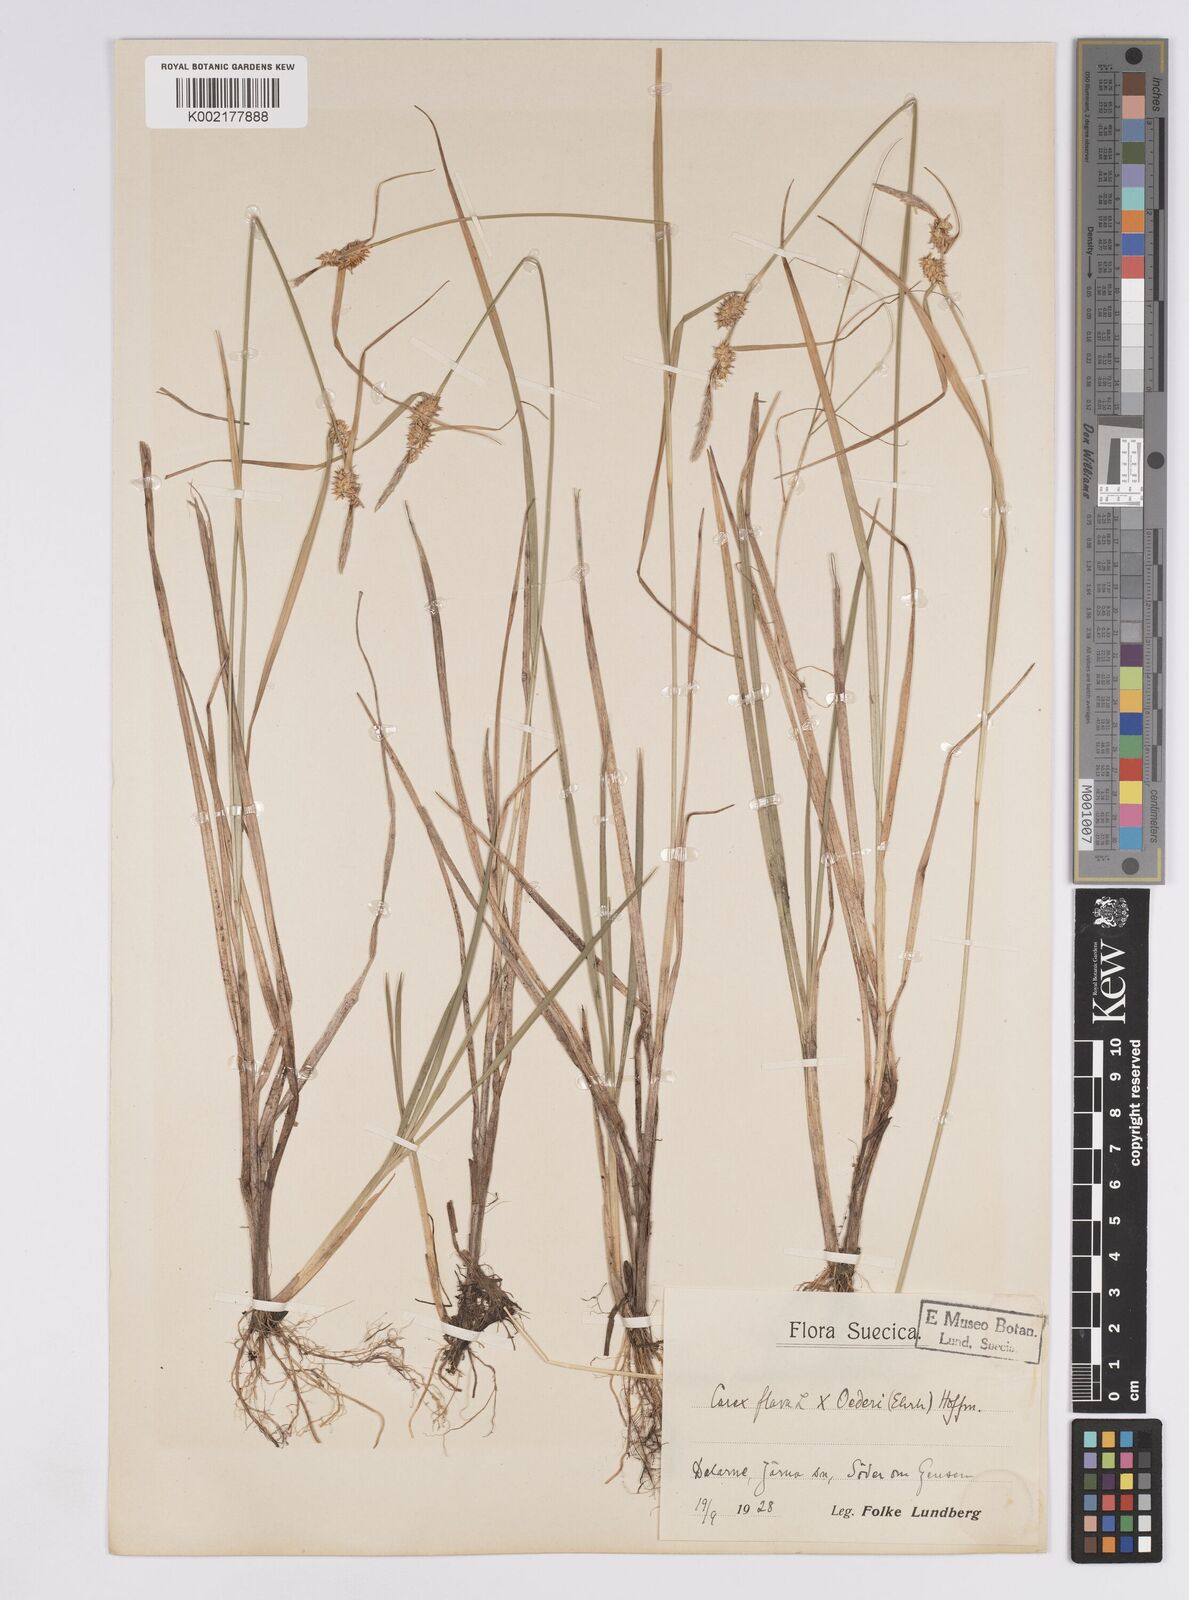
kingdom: Plantae
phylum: Tracheophyta
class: Liliopsida
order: Poales
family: Cyperaceae
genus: Carex
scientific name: Carex flava
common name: Large yellow-sedge
